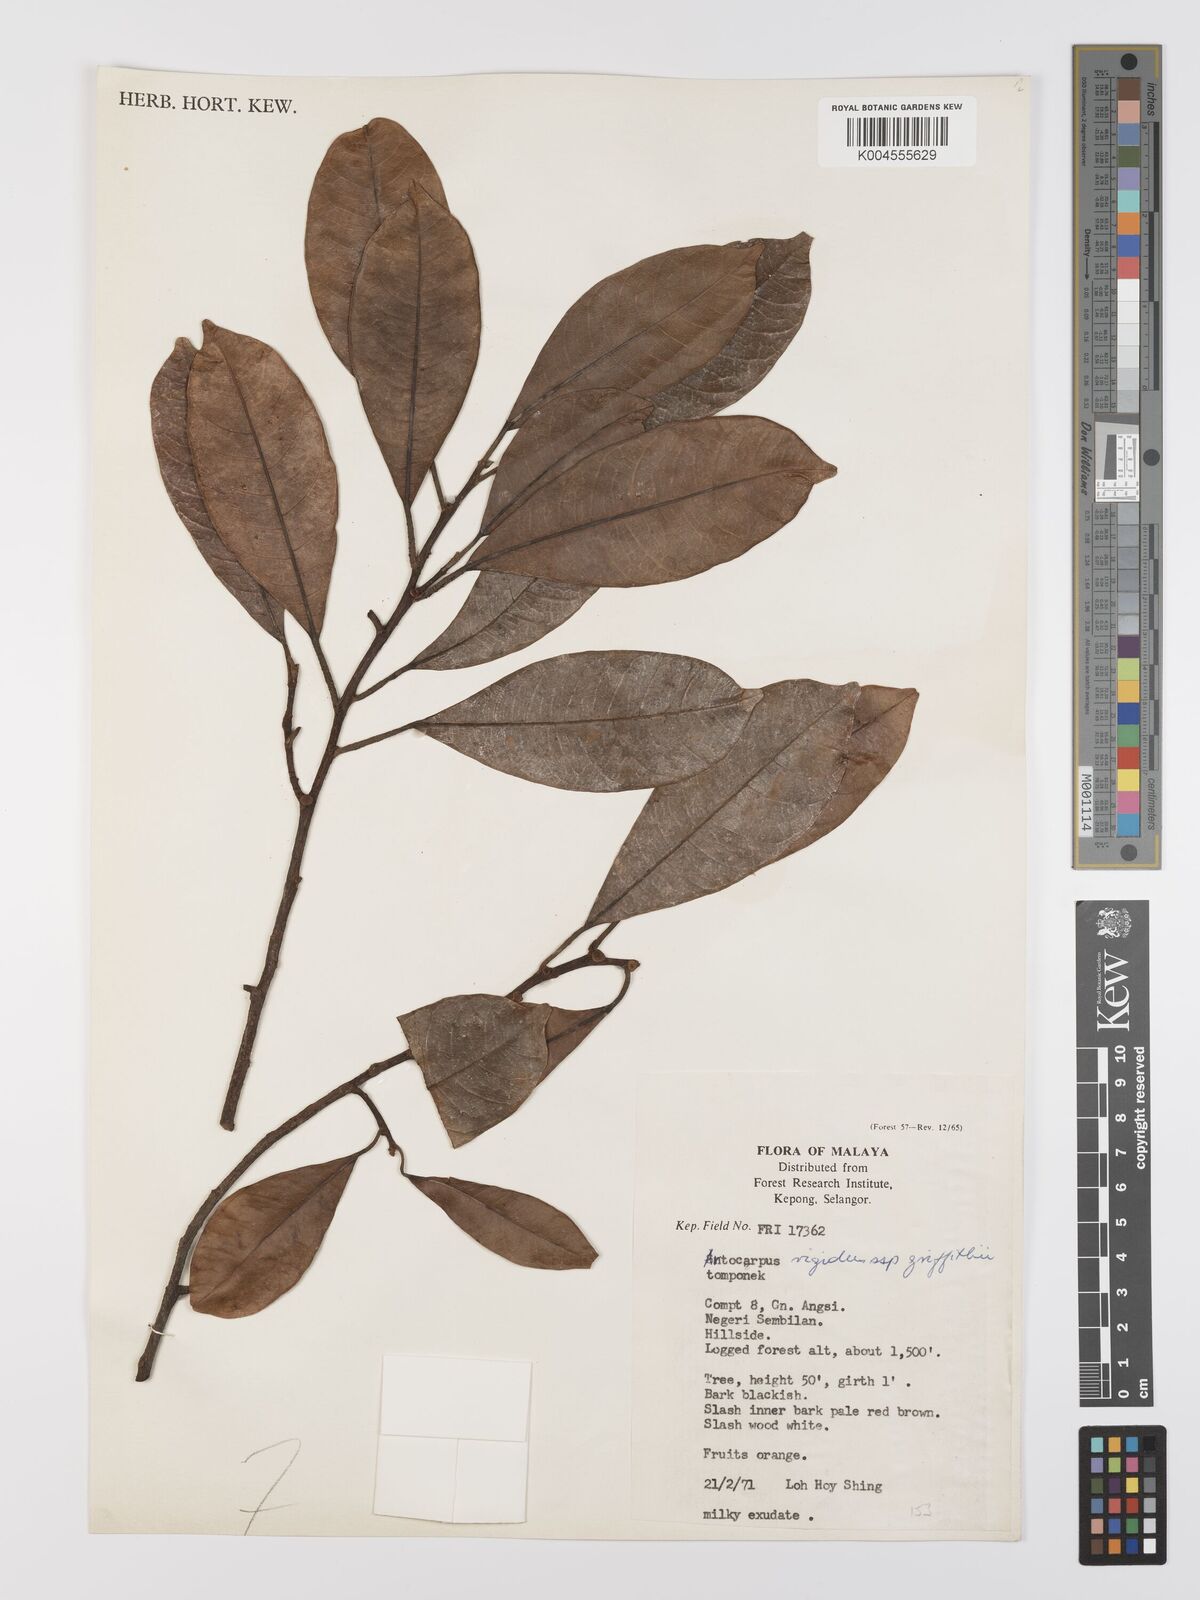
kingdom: Plantae
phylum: Tracheophyta
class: Magnoliopsida
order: Rosales
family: Moraceae
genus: Artocarpus
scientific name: Artocarpus
